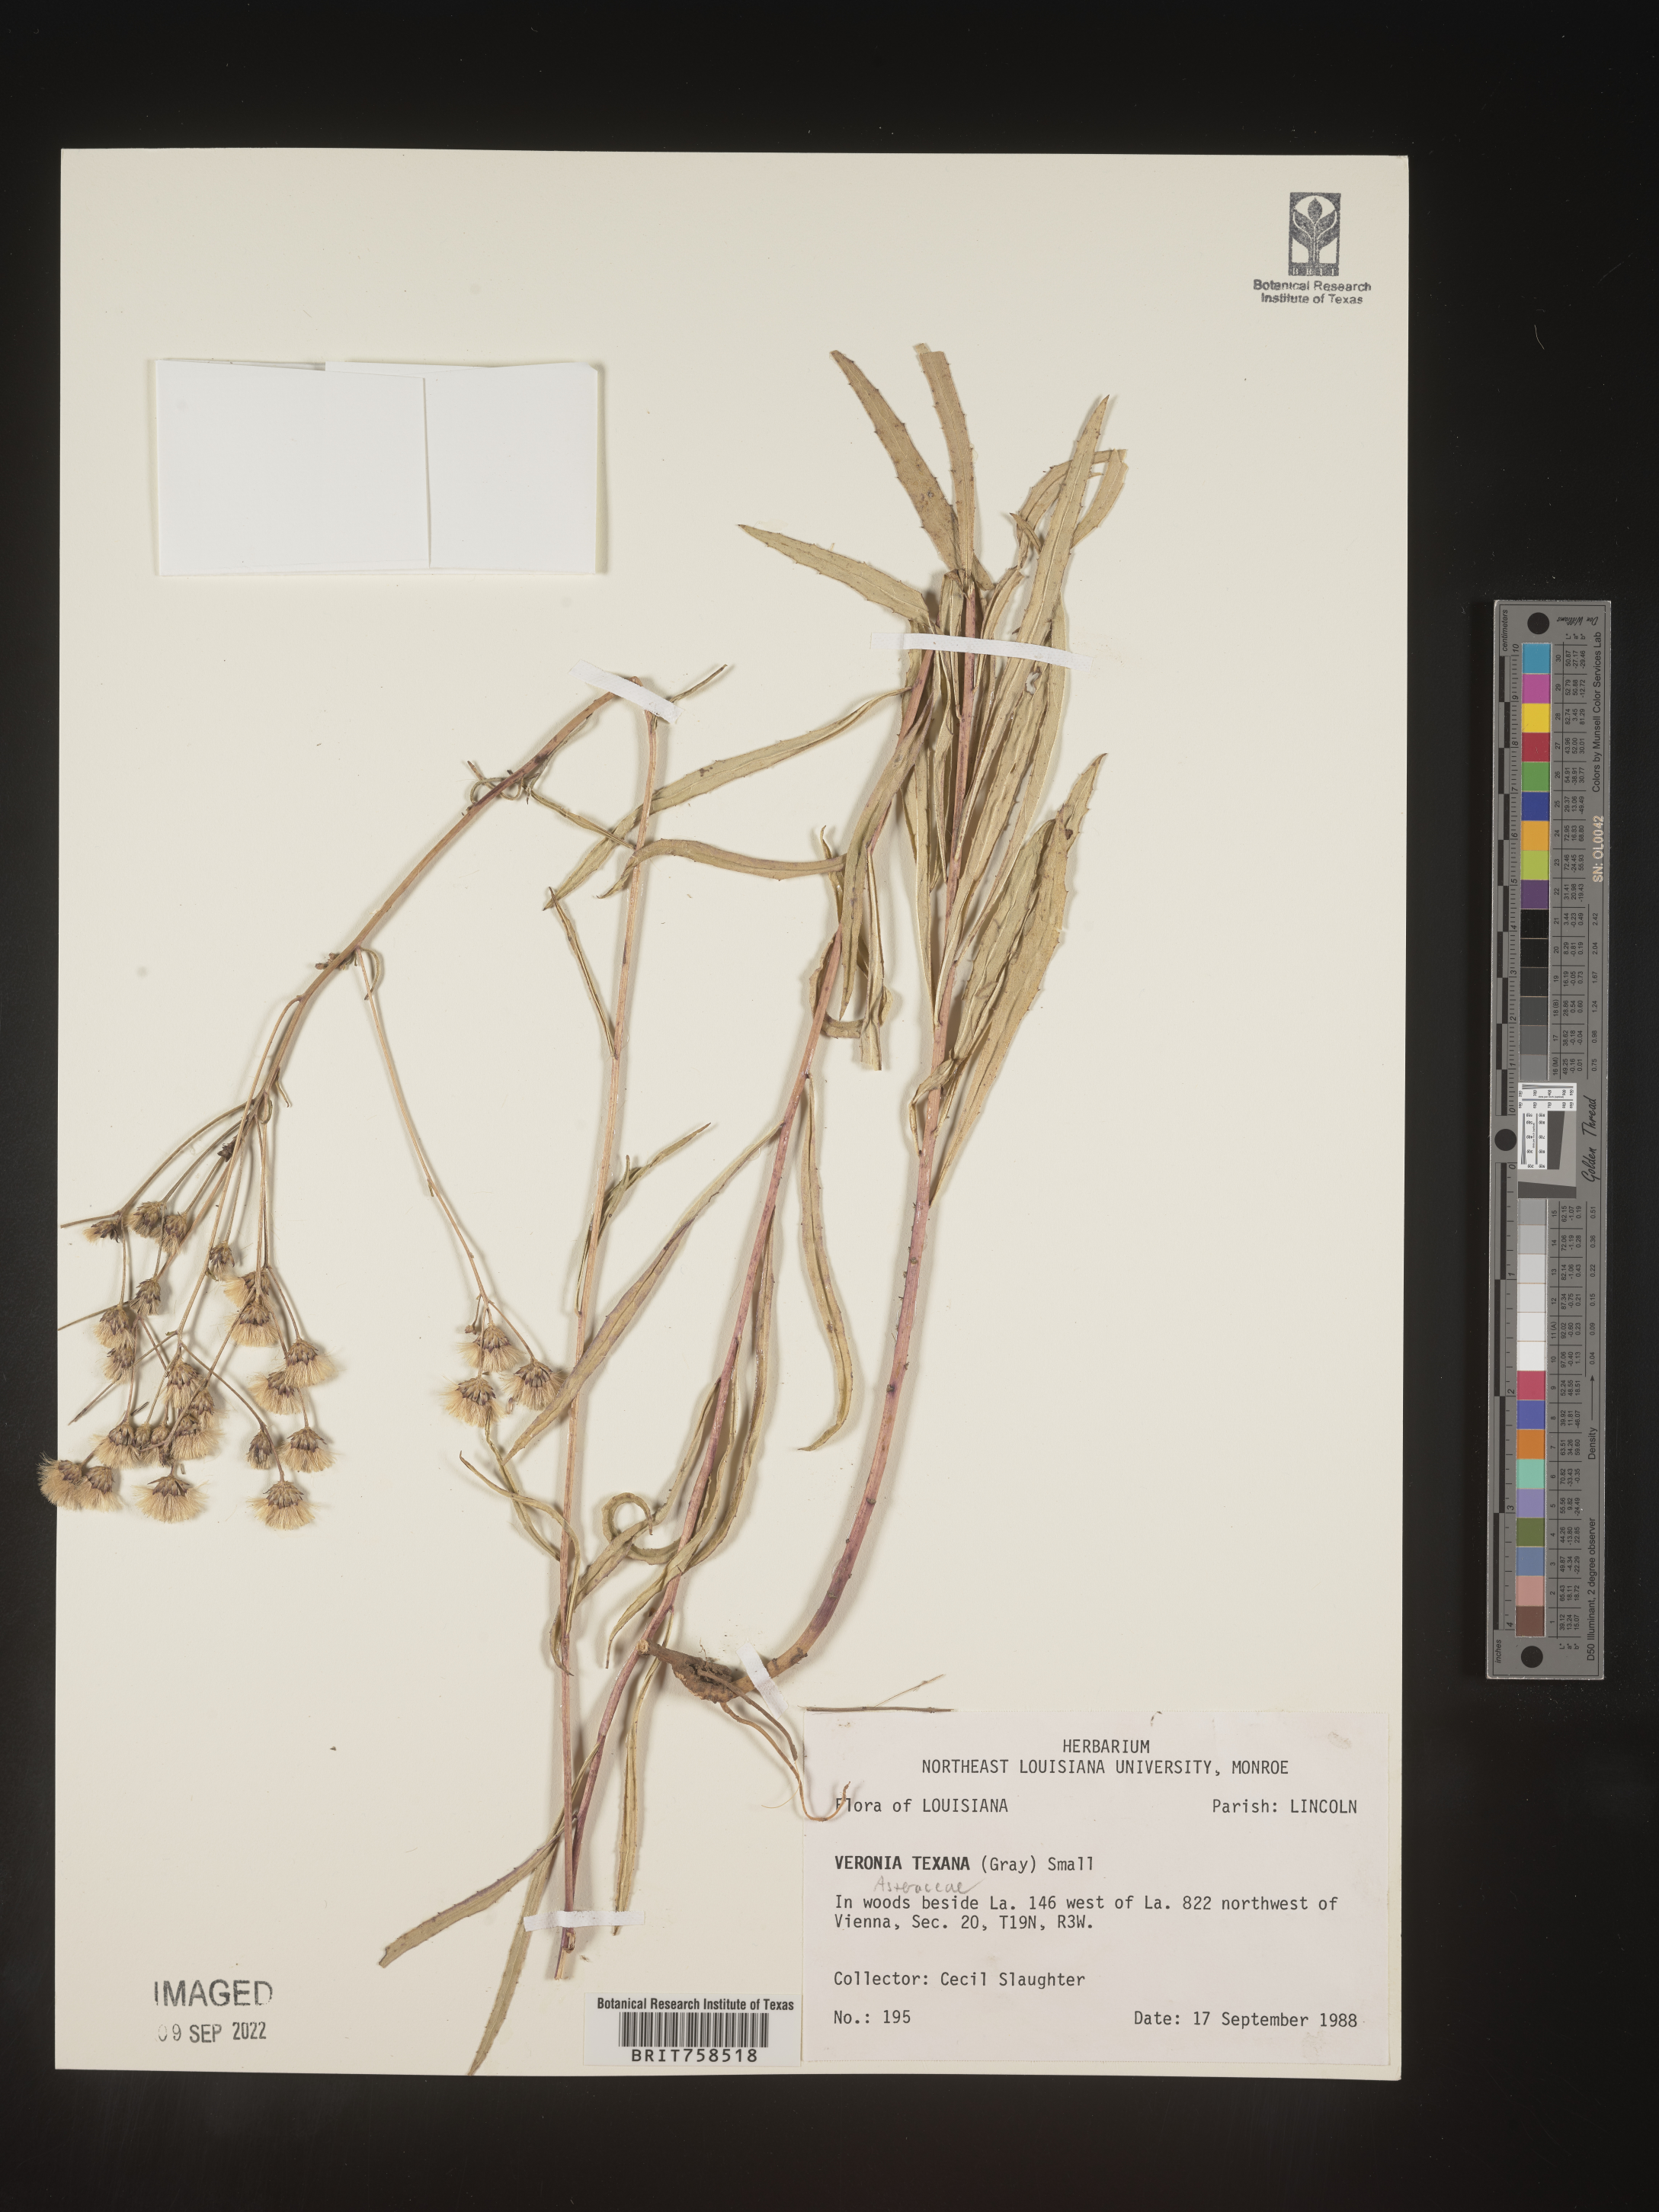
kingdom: Plantae
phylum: Tracheophyta
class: Magnoliopsida
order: Asterales
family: Asteraceae
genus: Vernonia
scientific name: Vernonia texana
